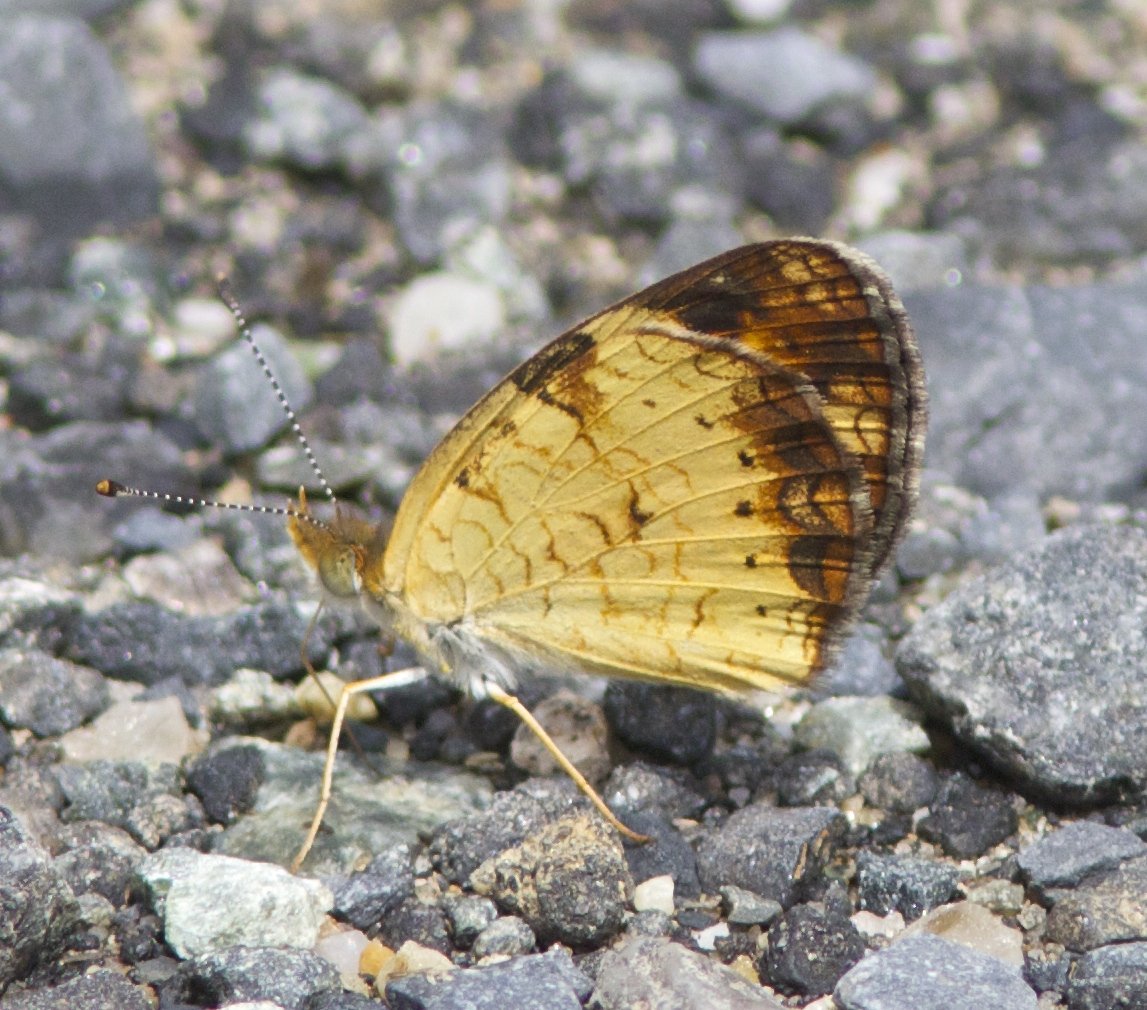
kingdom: Animalia
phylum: Arthropoda
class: Insecta
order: Lepidoptera
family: Nymphalidae
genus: Phyciodes
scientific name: Phyciodes tharos
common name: Pearl Crescent
